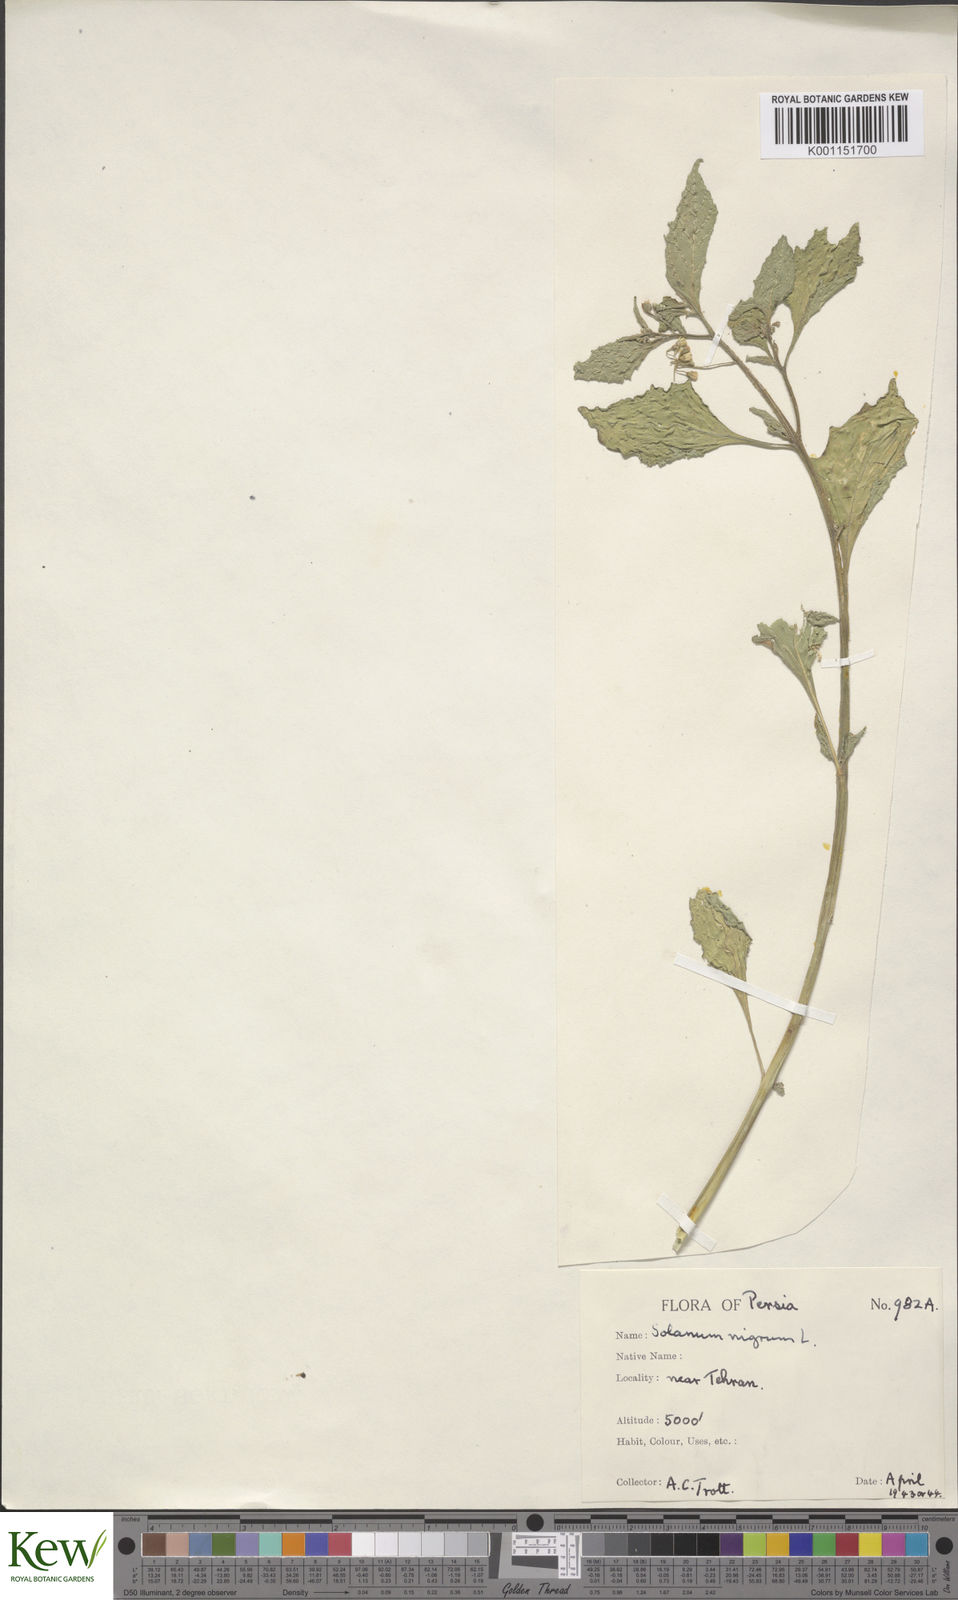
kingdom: Plantae
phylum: Tracheophyta
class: Magnoliopsida
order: Solanales
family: Solanaceae
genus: Solanum
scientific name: Solanum
